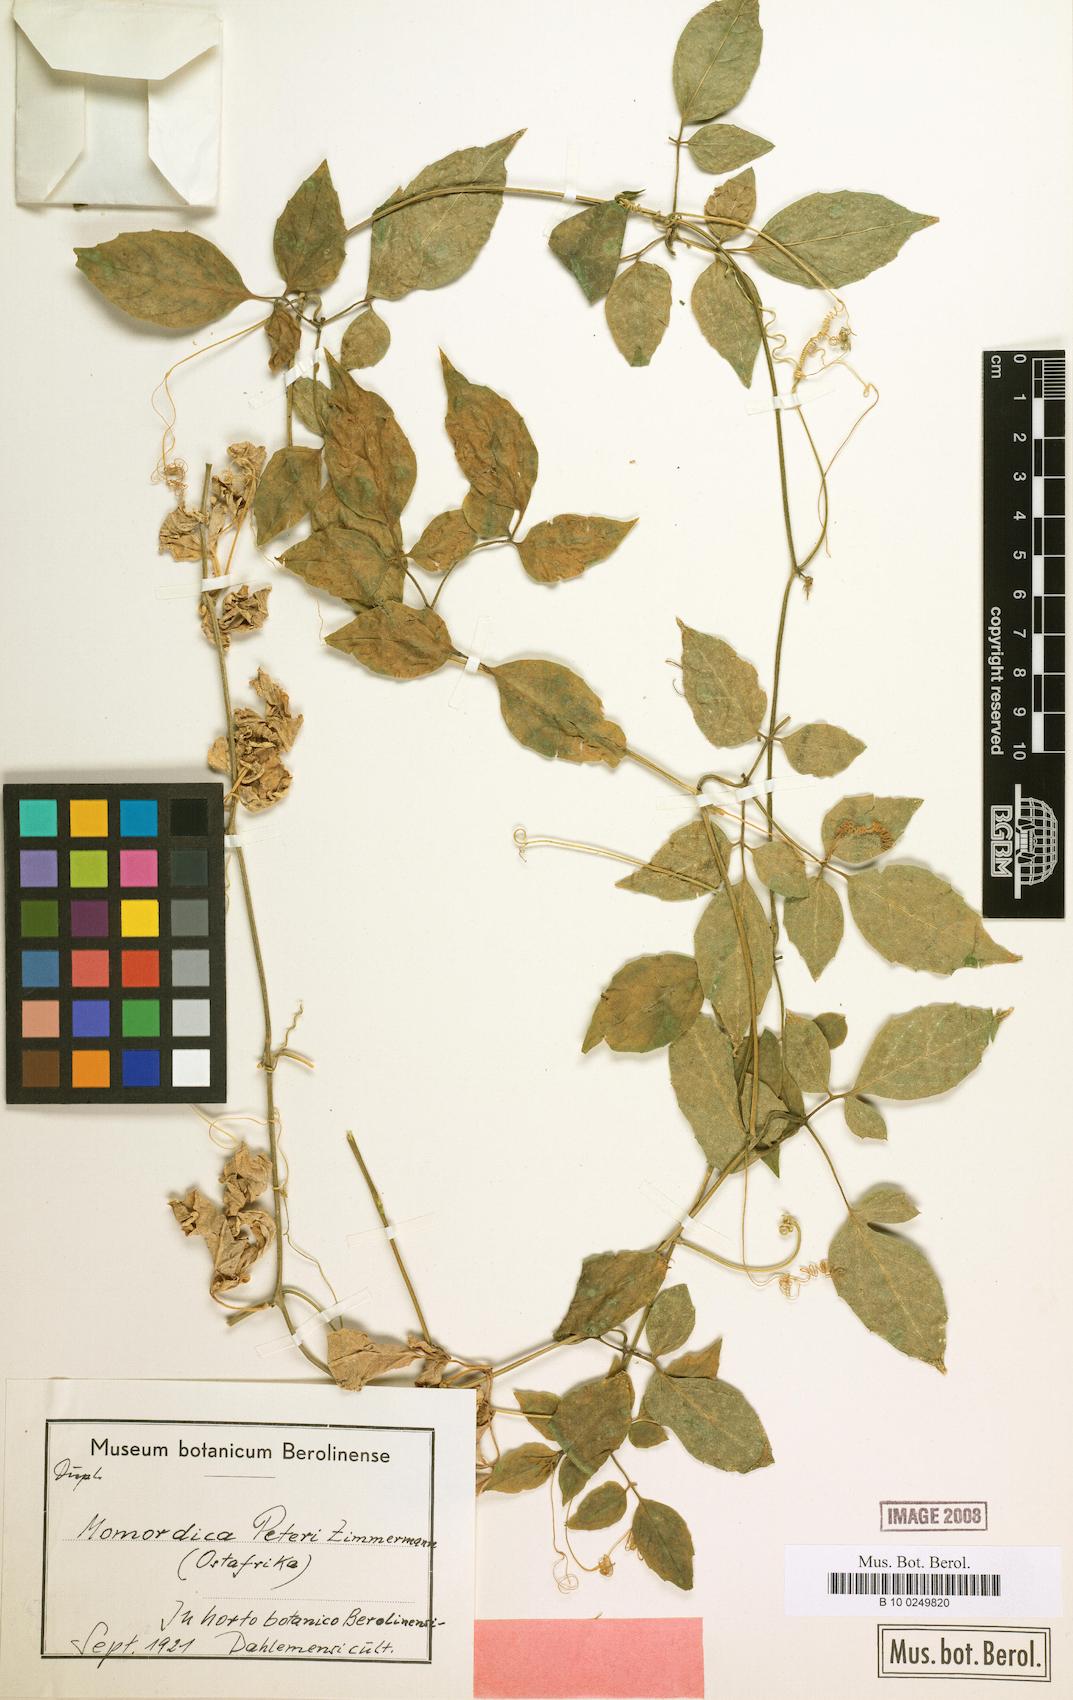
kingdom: Plantae
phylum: Tracheophyta
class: Magnoliopsida
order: Cucurbitales
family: Cucurbitaceae
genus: Momordica
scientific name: Momordica peteri
